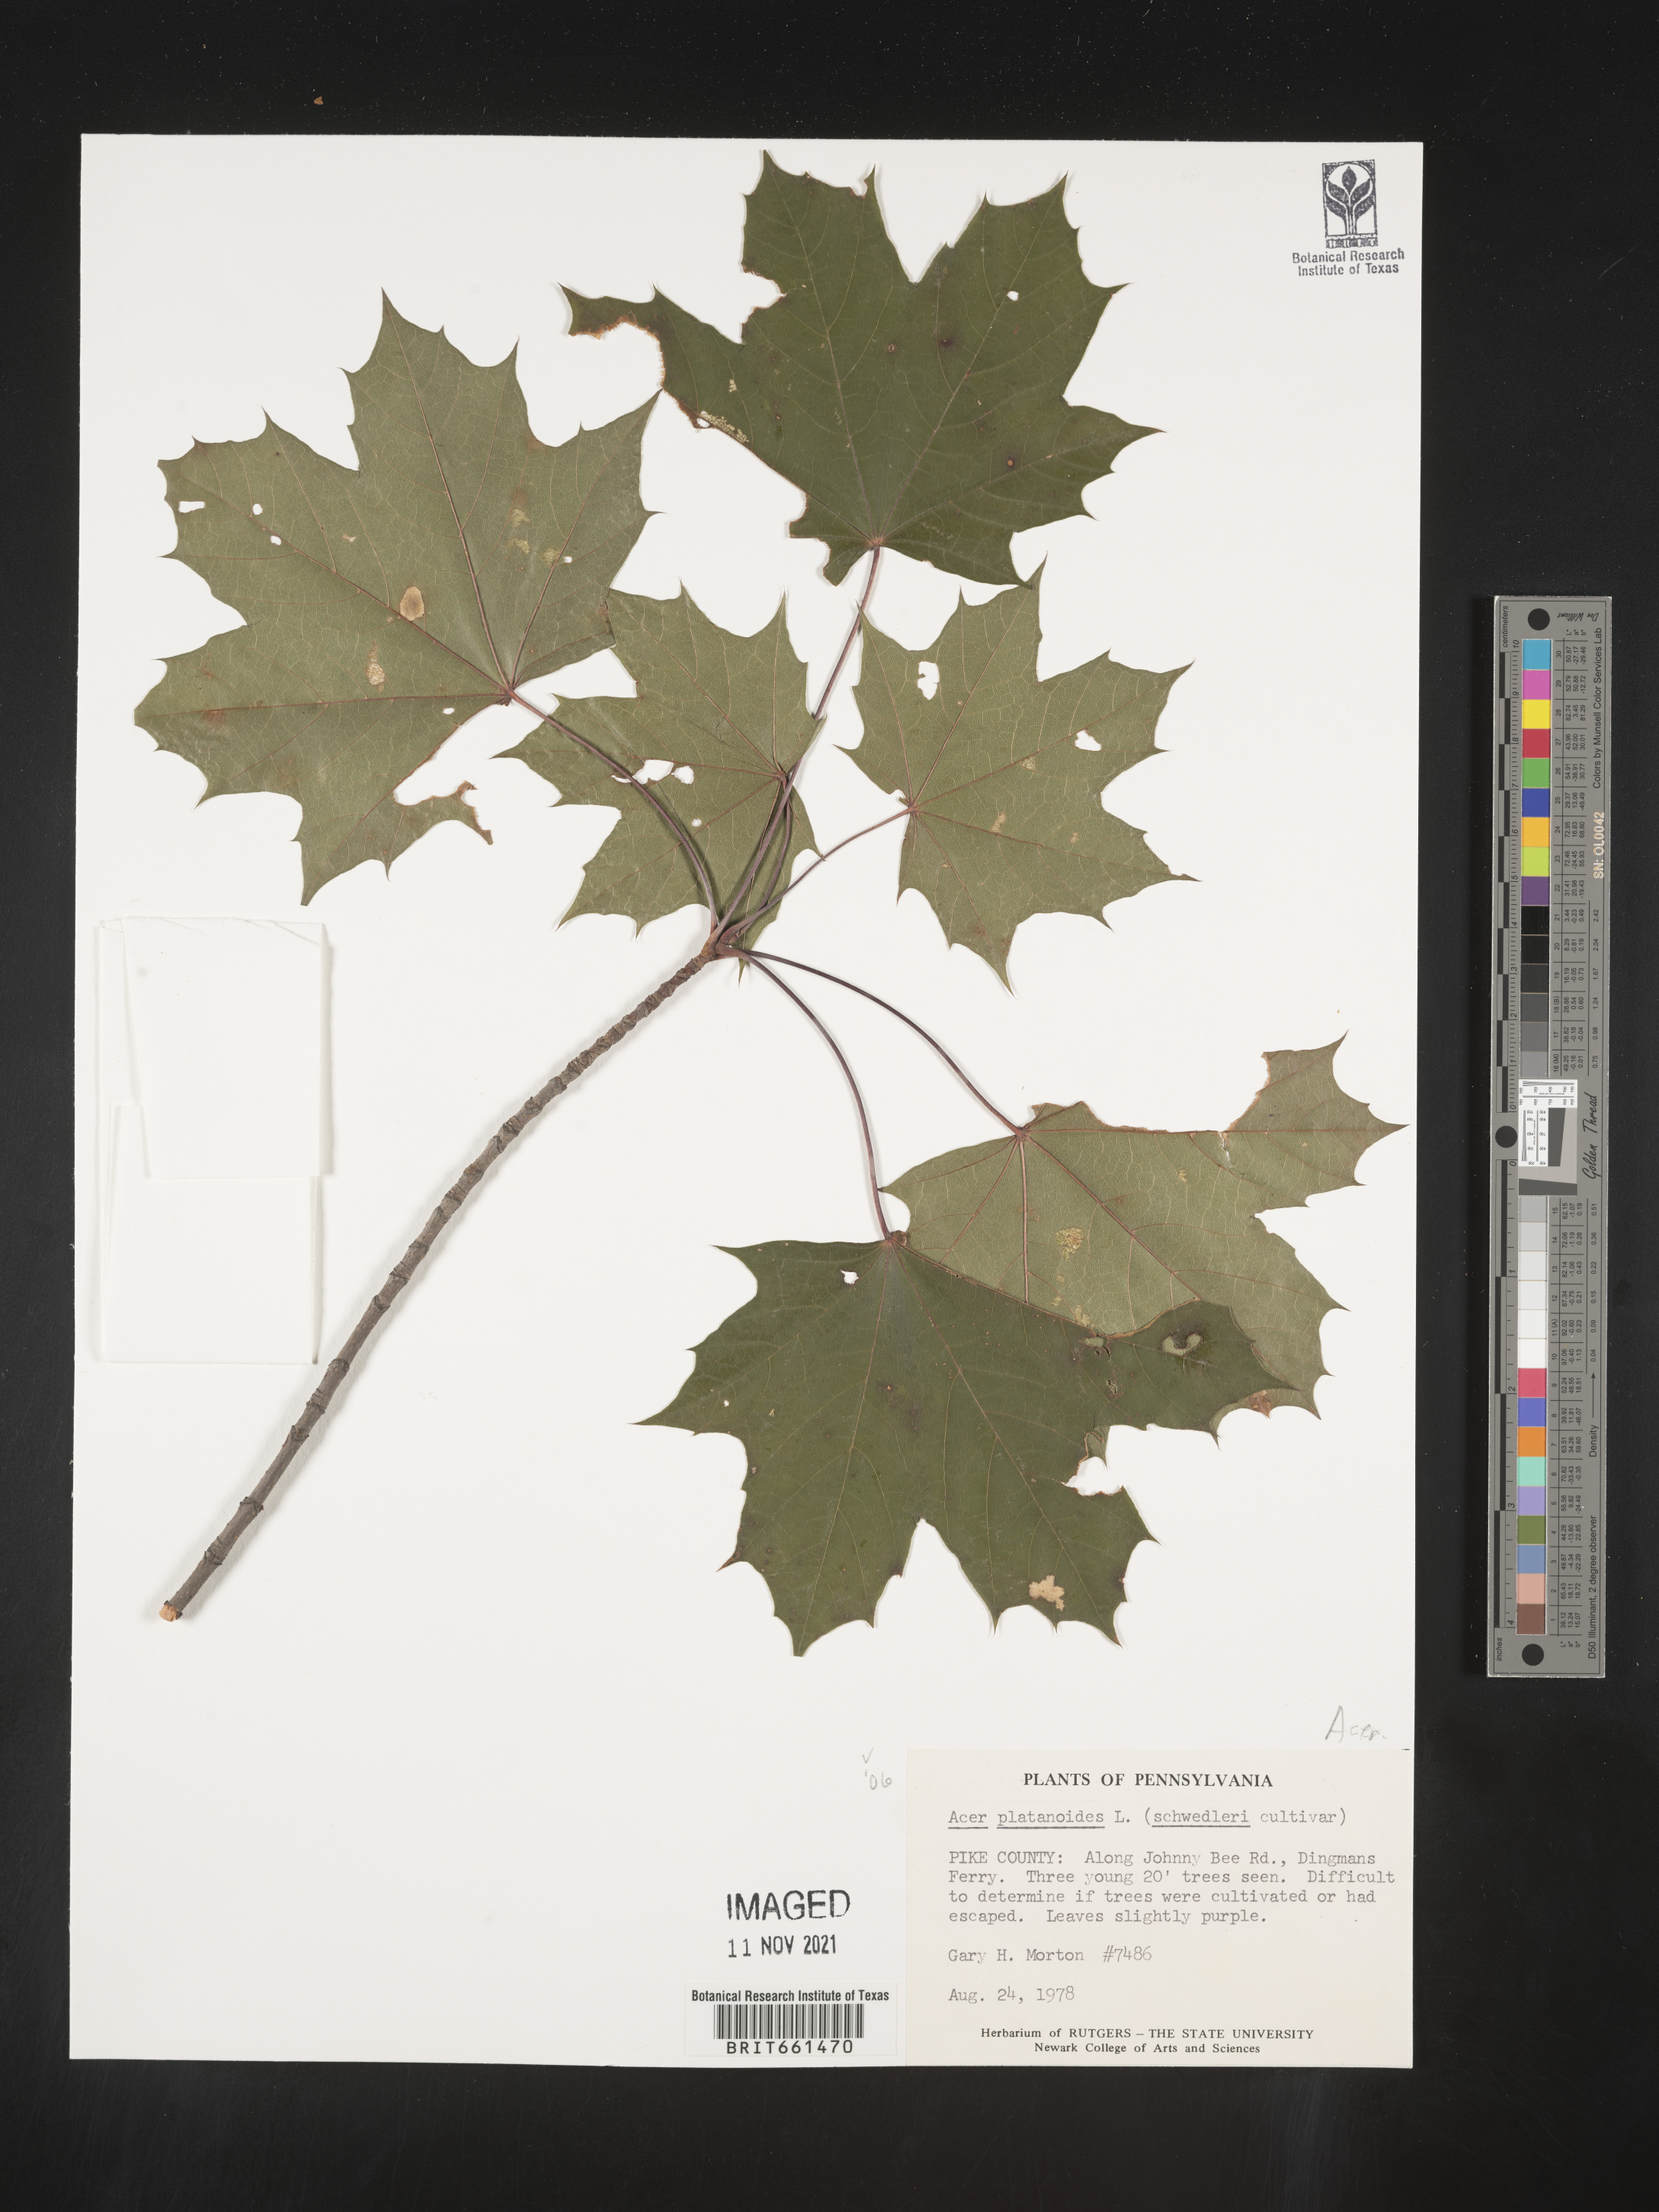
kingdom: Plantae
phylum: Tracheophyta
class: Magnoliopsida
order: Sapindales
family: Sapindaceae
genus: Acer
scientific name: Acer
